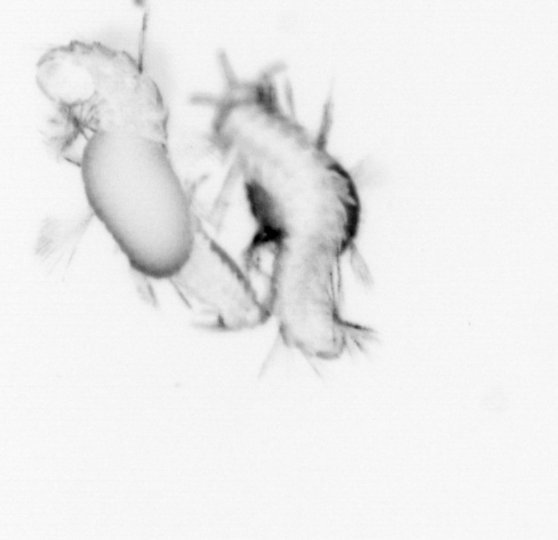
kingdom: Animalia
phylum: Annelida
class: Polychaeta
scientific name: Polychaeta
